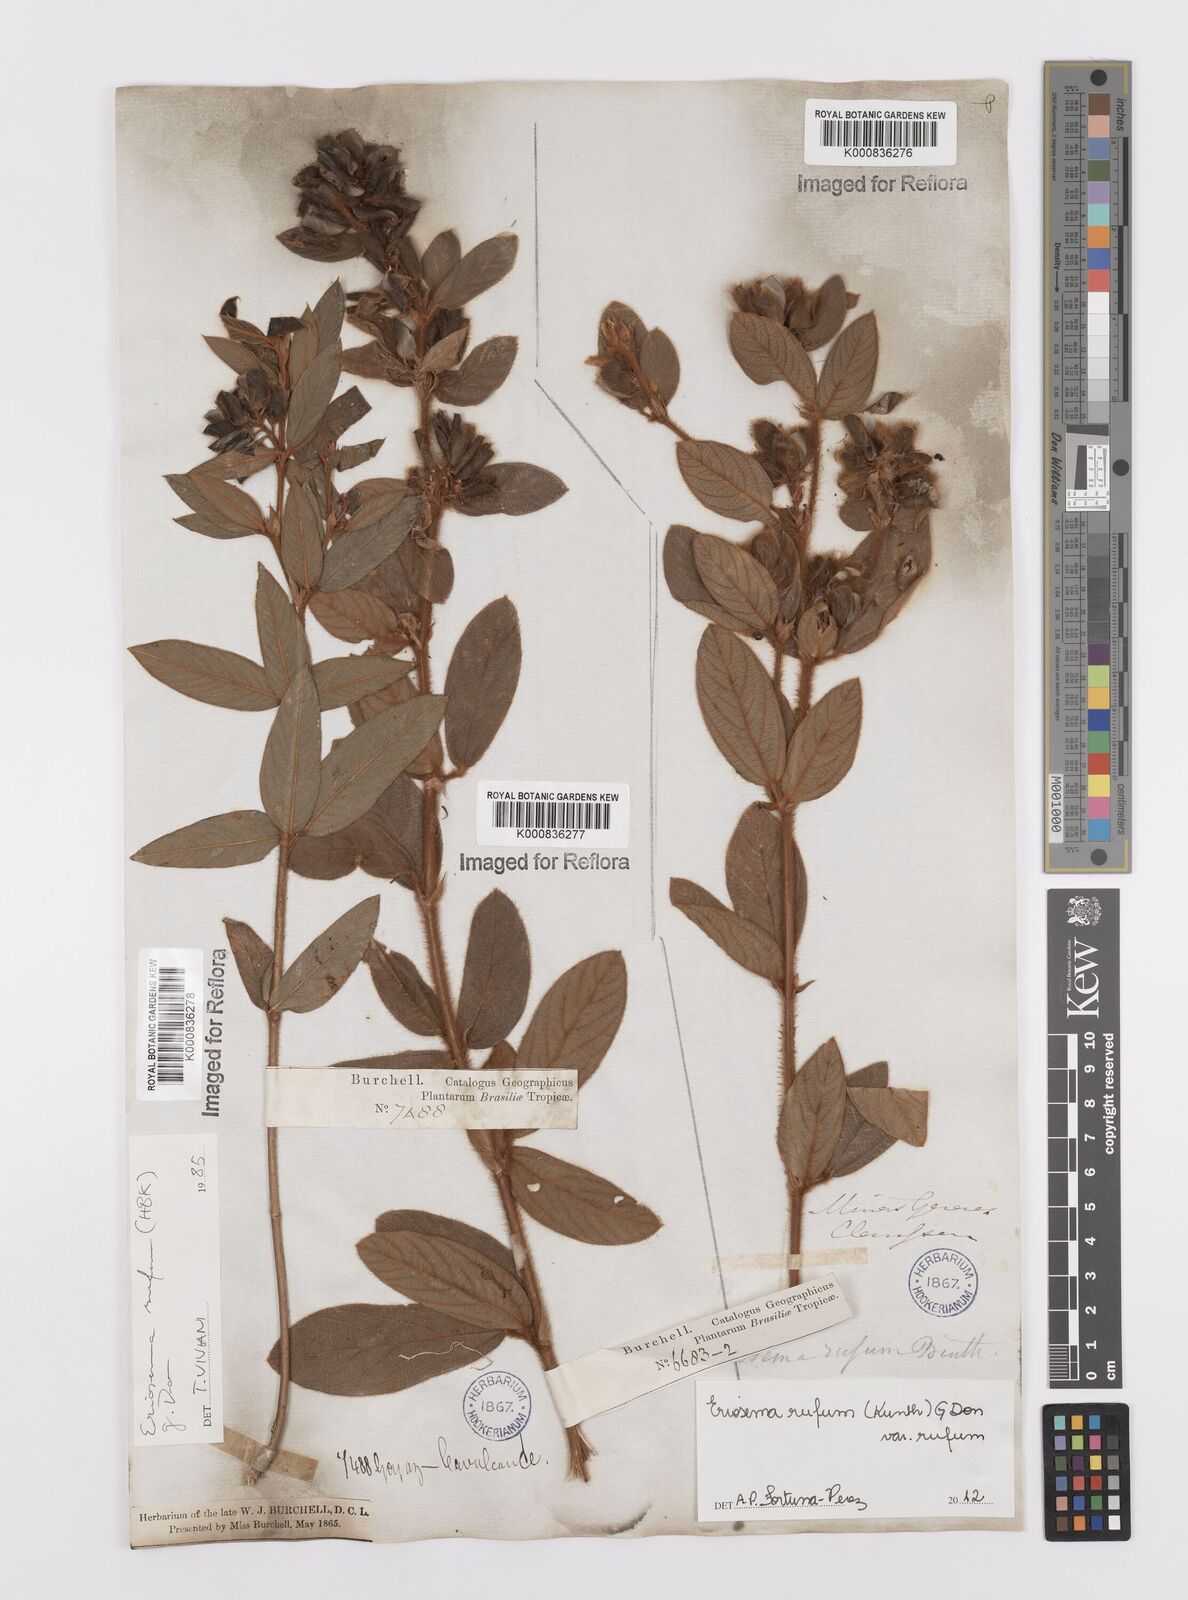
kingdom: Plantae
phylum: Tracheophyta
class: Magnoliopsida
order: Fabales
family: Fabaceae
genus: Eriosema
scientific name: Eriosema rufum
